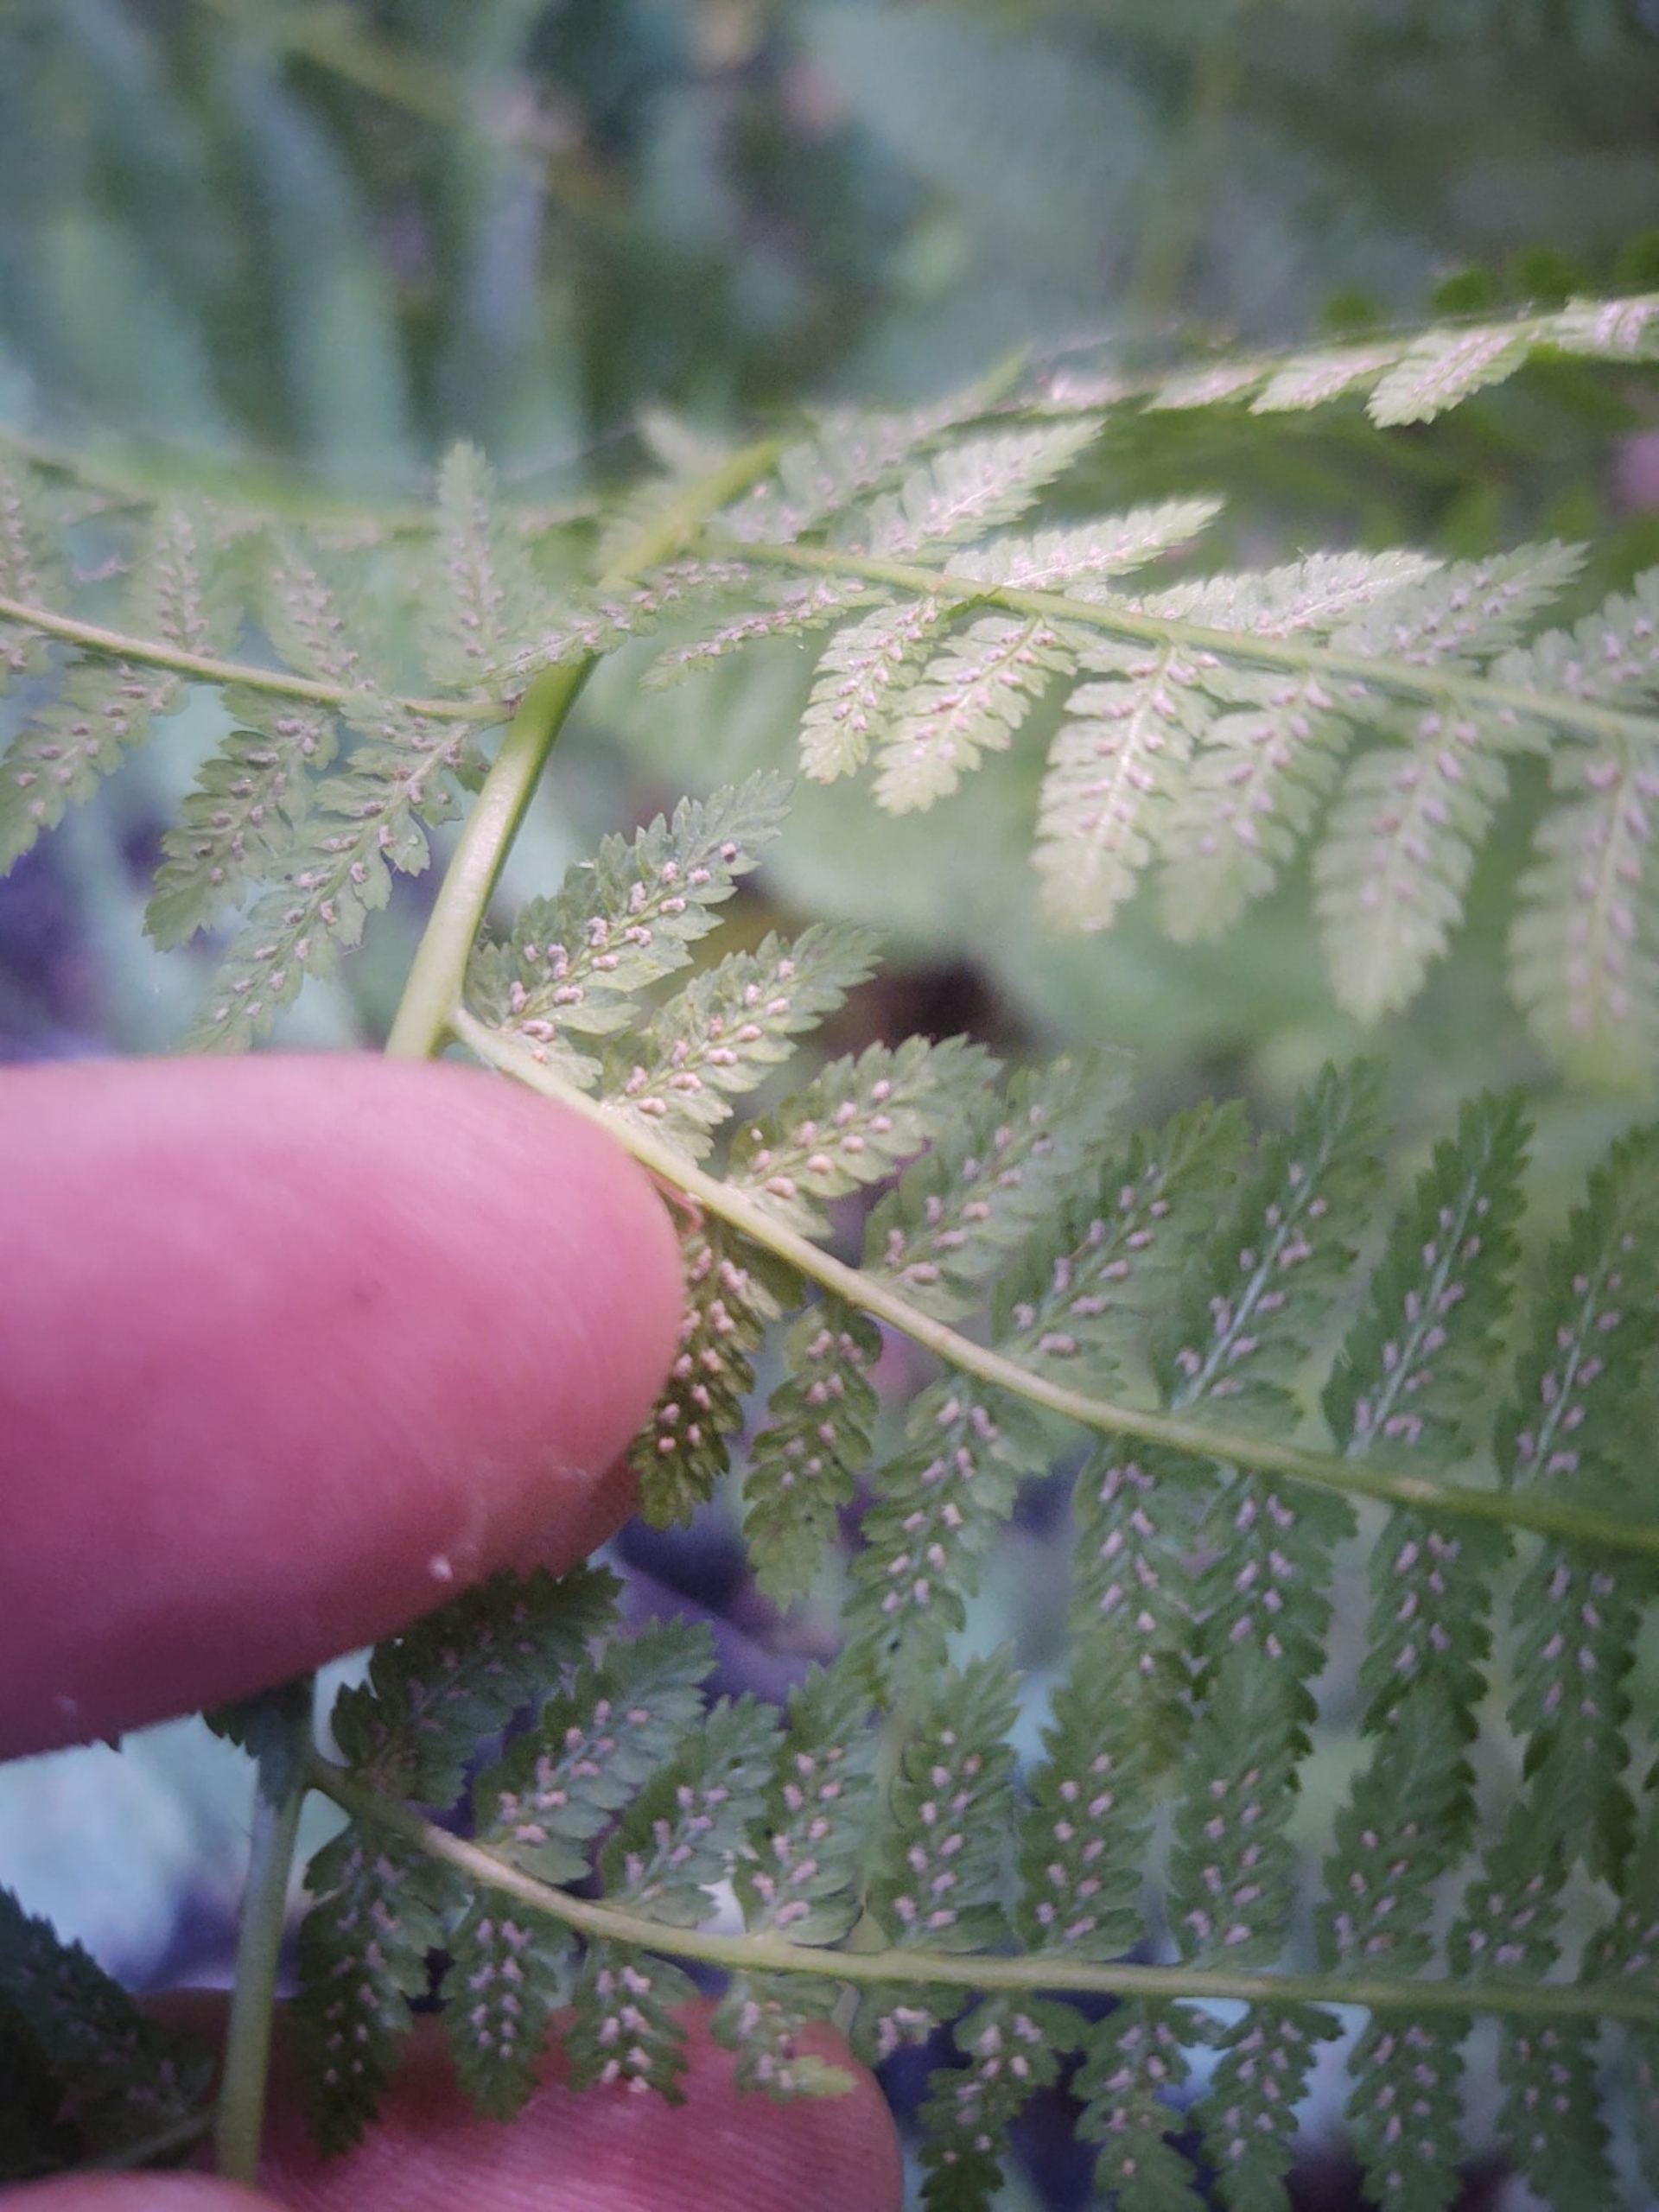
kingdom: Plantae
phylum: Tracheophyta
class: Polypodiopsida
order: Polypodiales
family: Athyriaceae
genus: Athyrium
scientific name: Athyrium filix-femina
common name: Fjerbregne
